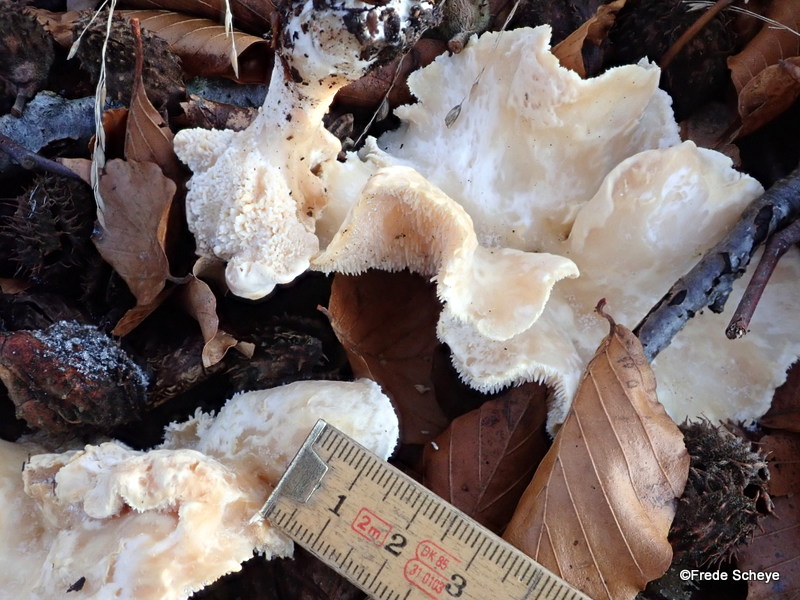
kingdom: Fungi
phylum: Basidiomycota
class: Agaricomycetes
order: Cantharellales
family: Hydnaceae
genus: Hydnum
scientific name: Hydnum repandum
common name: almindelig pigsvamp
